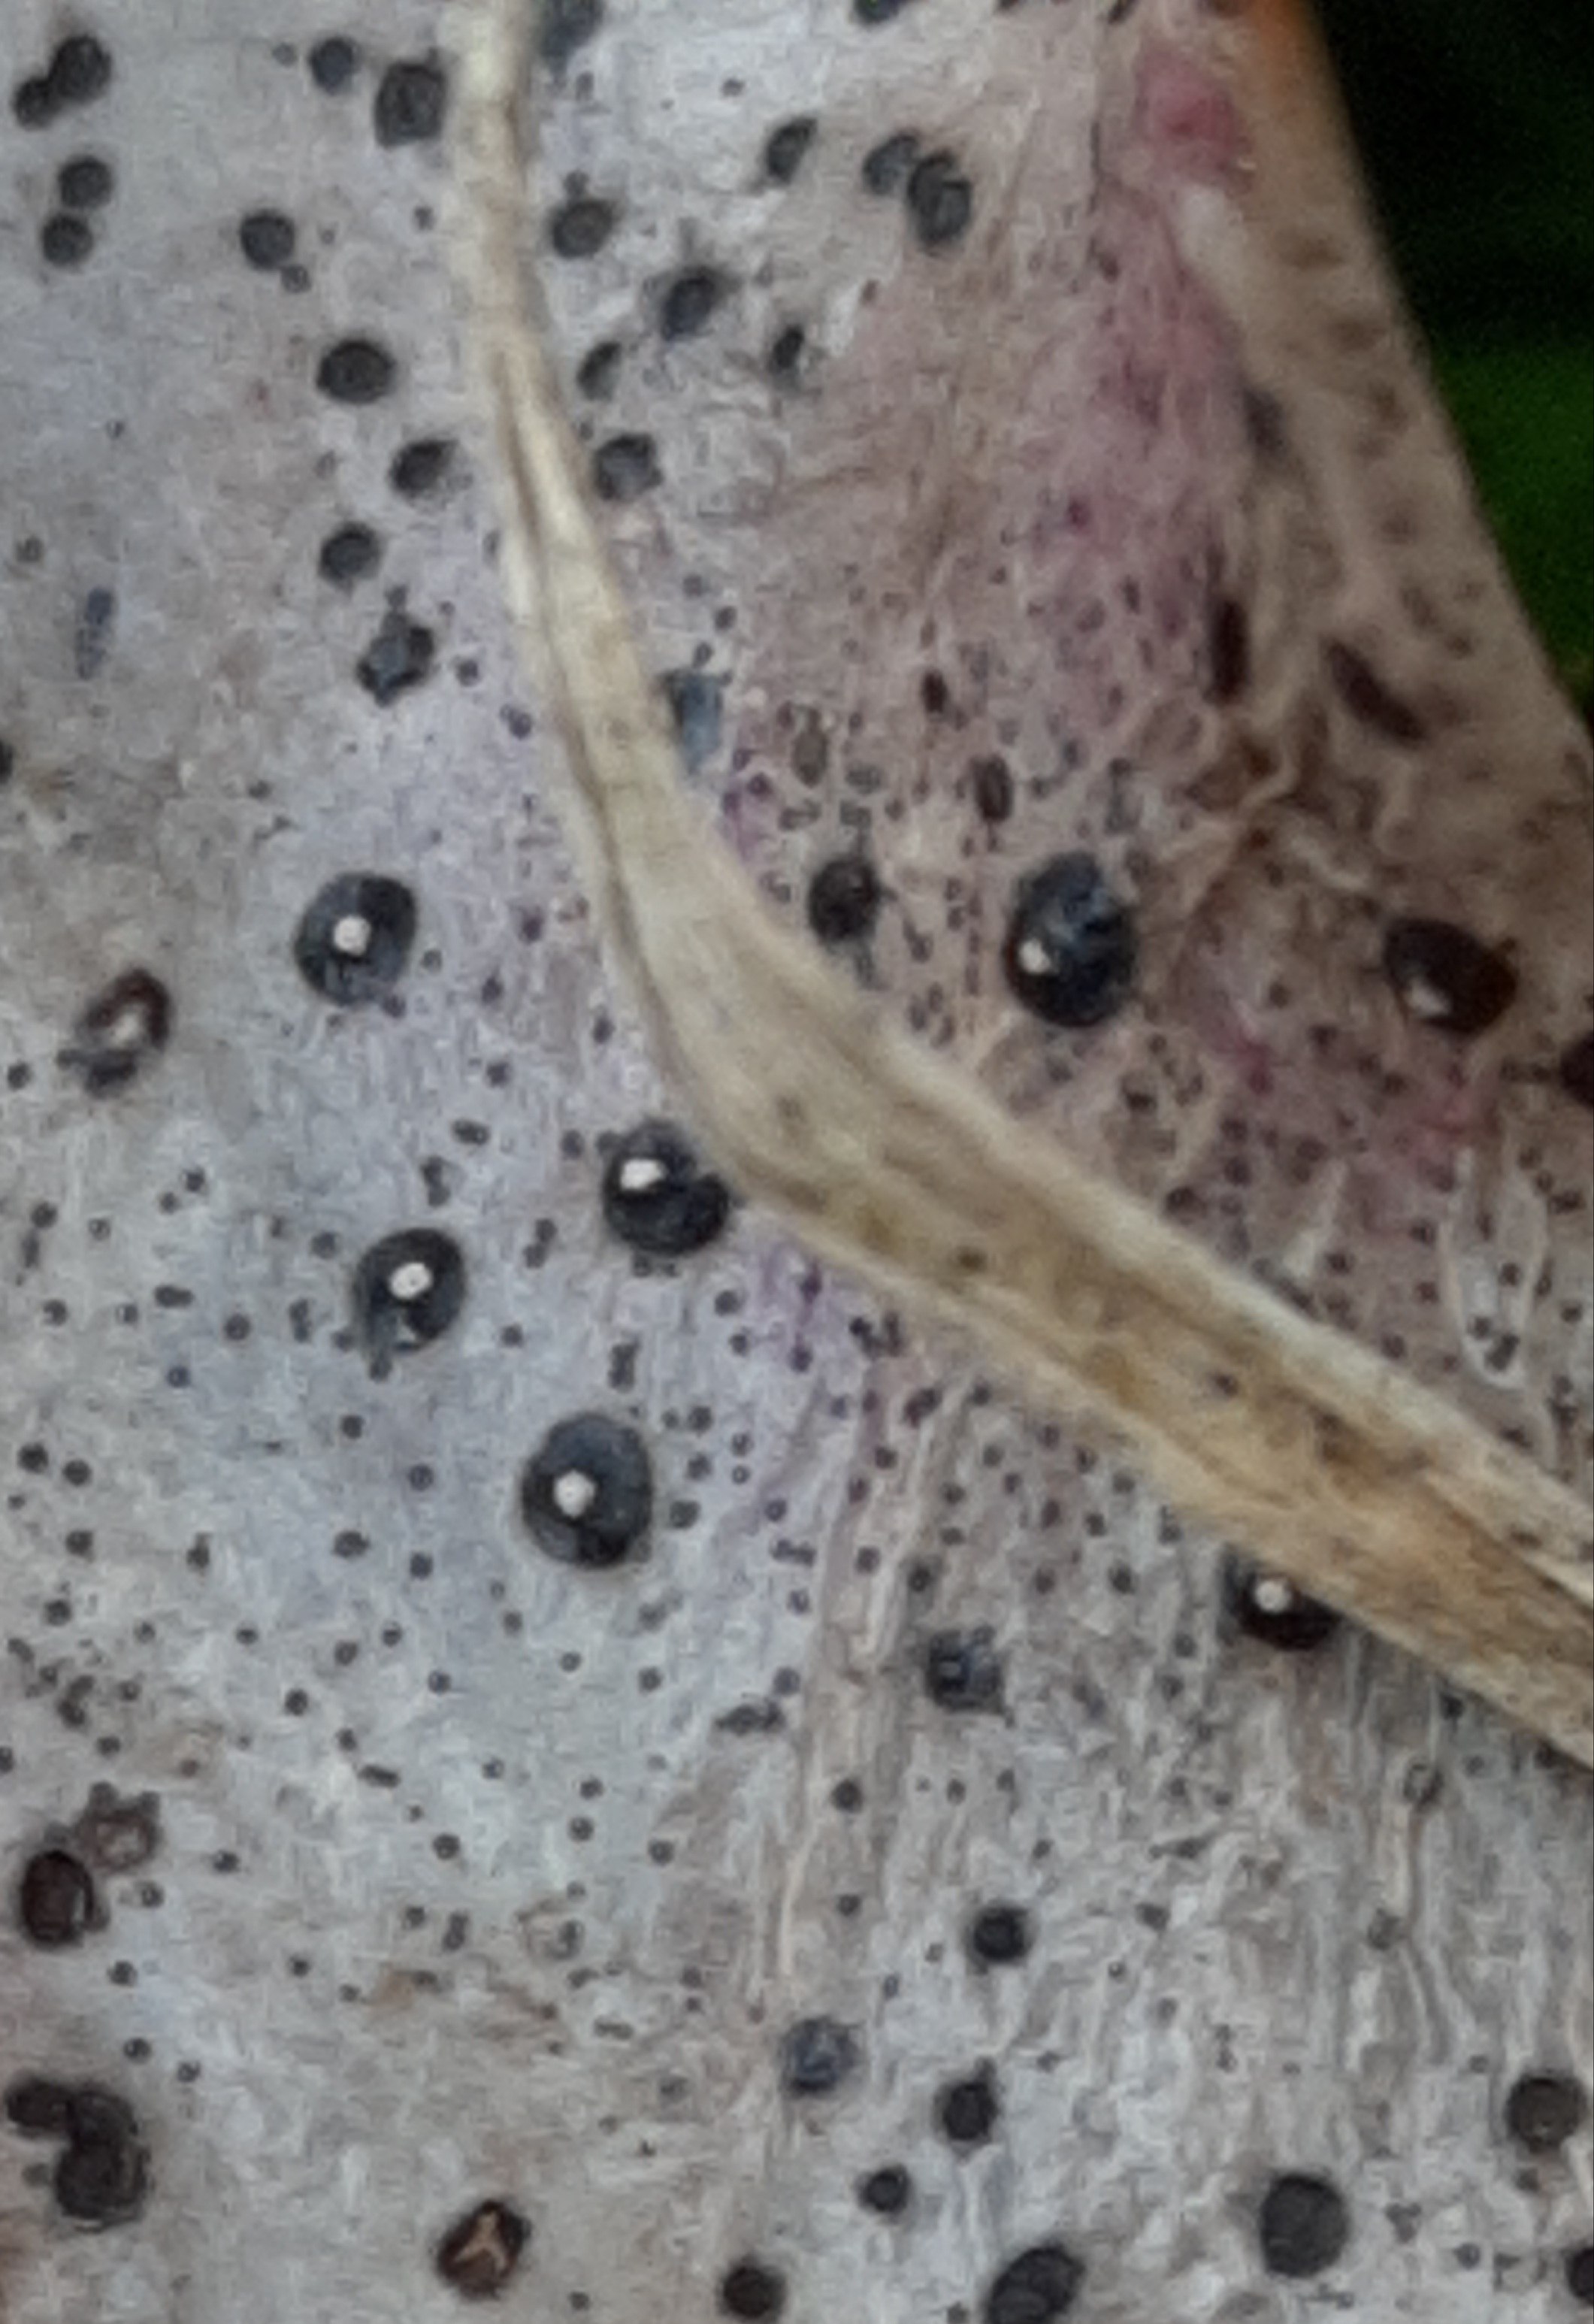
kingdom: Fungi
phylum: Ascomycota
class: Leotiomycetes
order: Phacidiales
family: Phacidiaceae
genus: Phacidium
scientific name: Phacidium lauri
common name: kristtorn-tandskive
